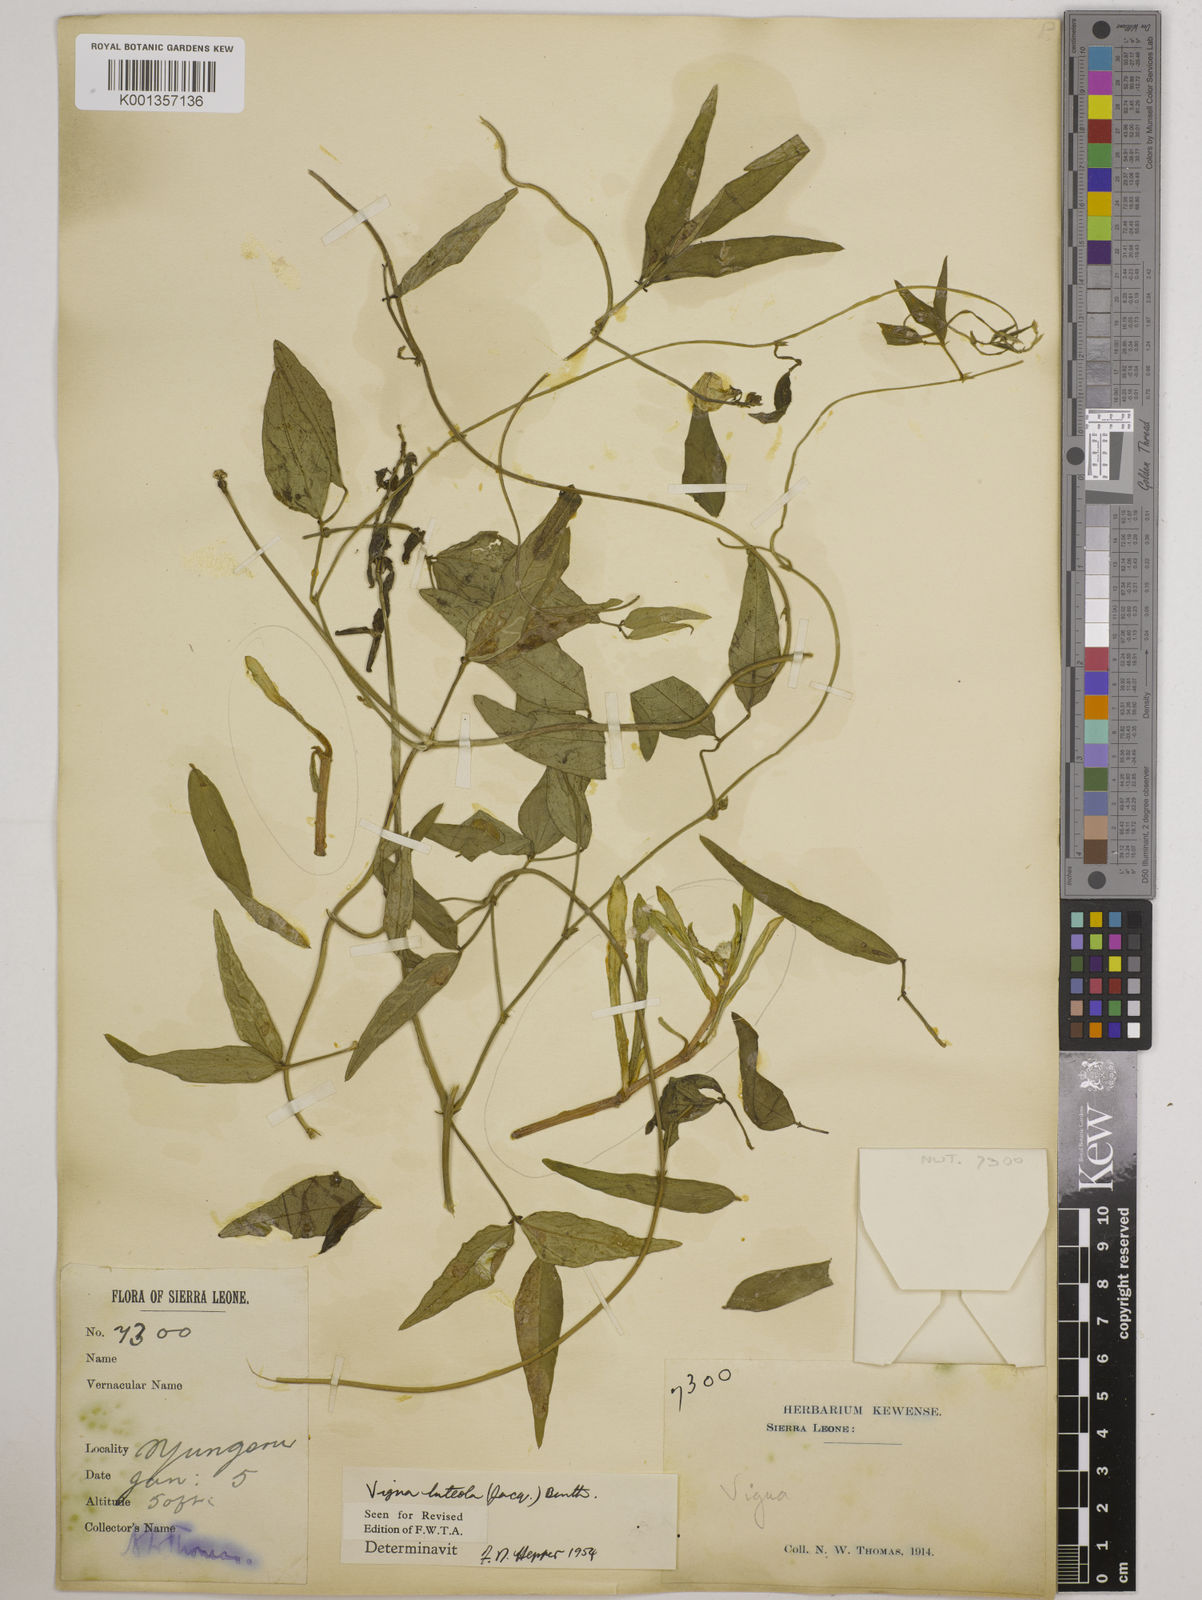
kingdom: Plantae
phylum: Tracheophyta
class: Magnoliopsida
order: Fabales
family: Fabaceae
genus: Vigna
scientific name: Vigna luteola
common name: Hairypod cowpea
